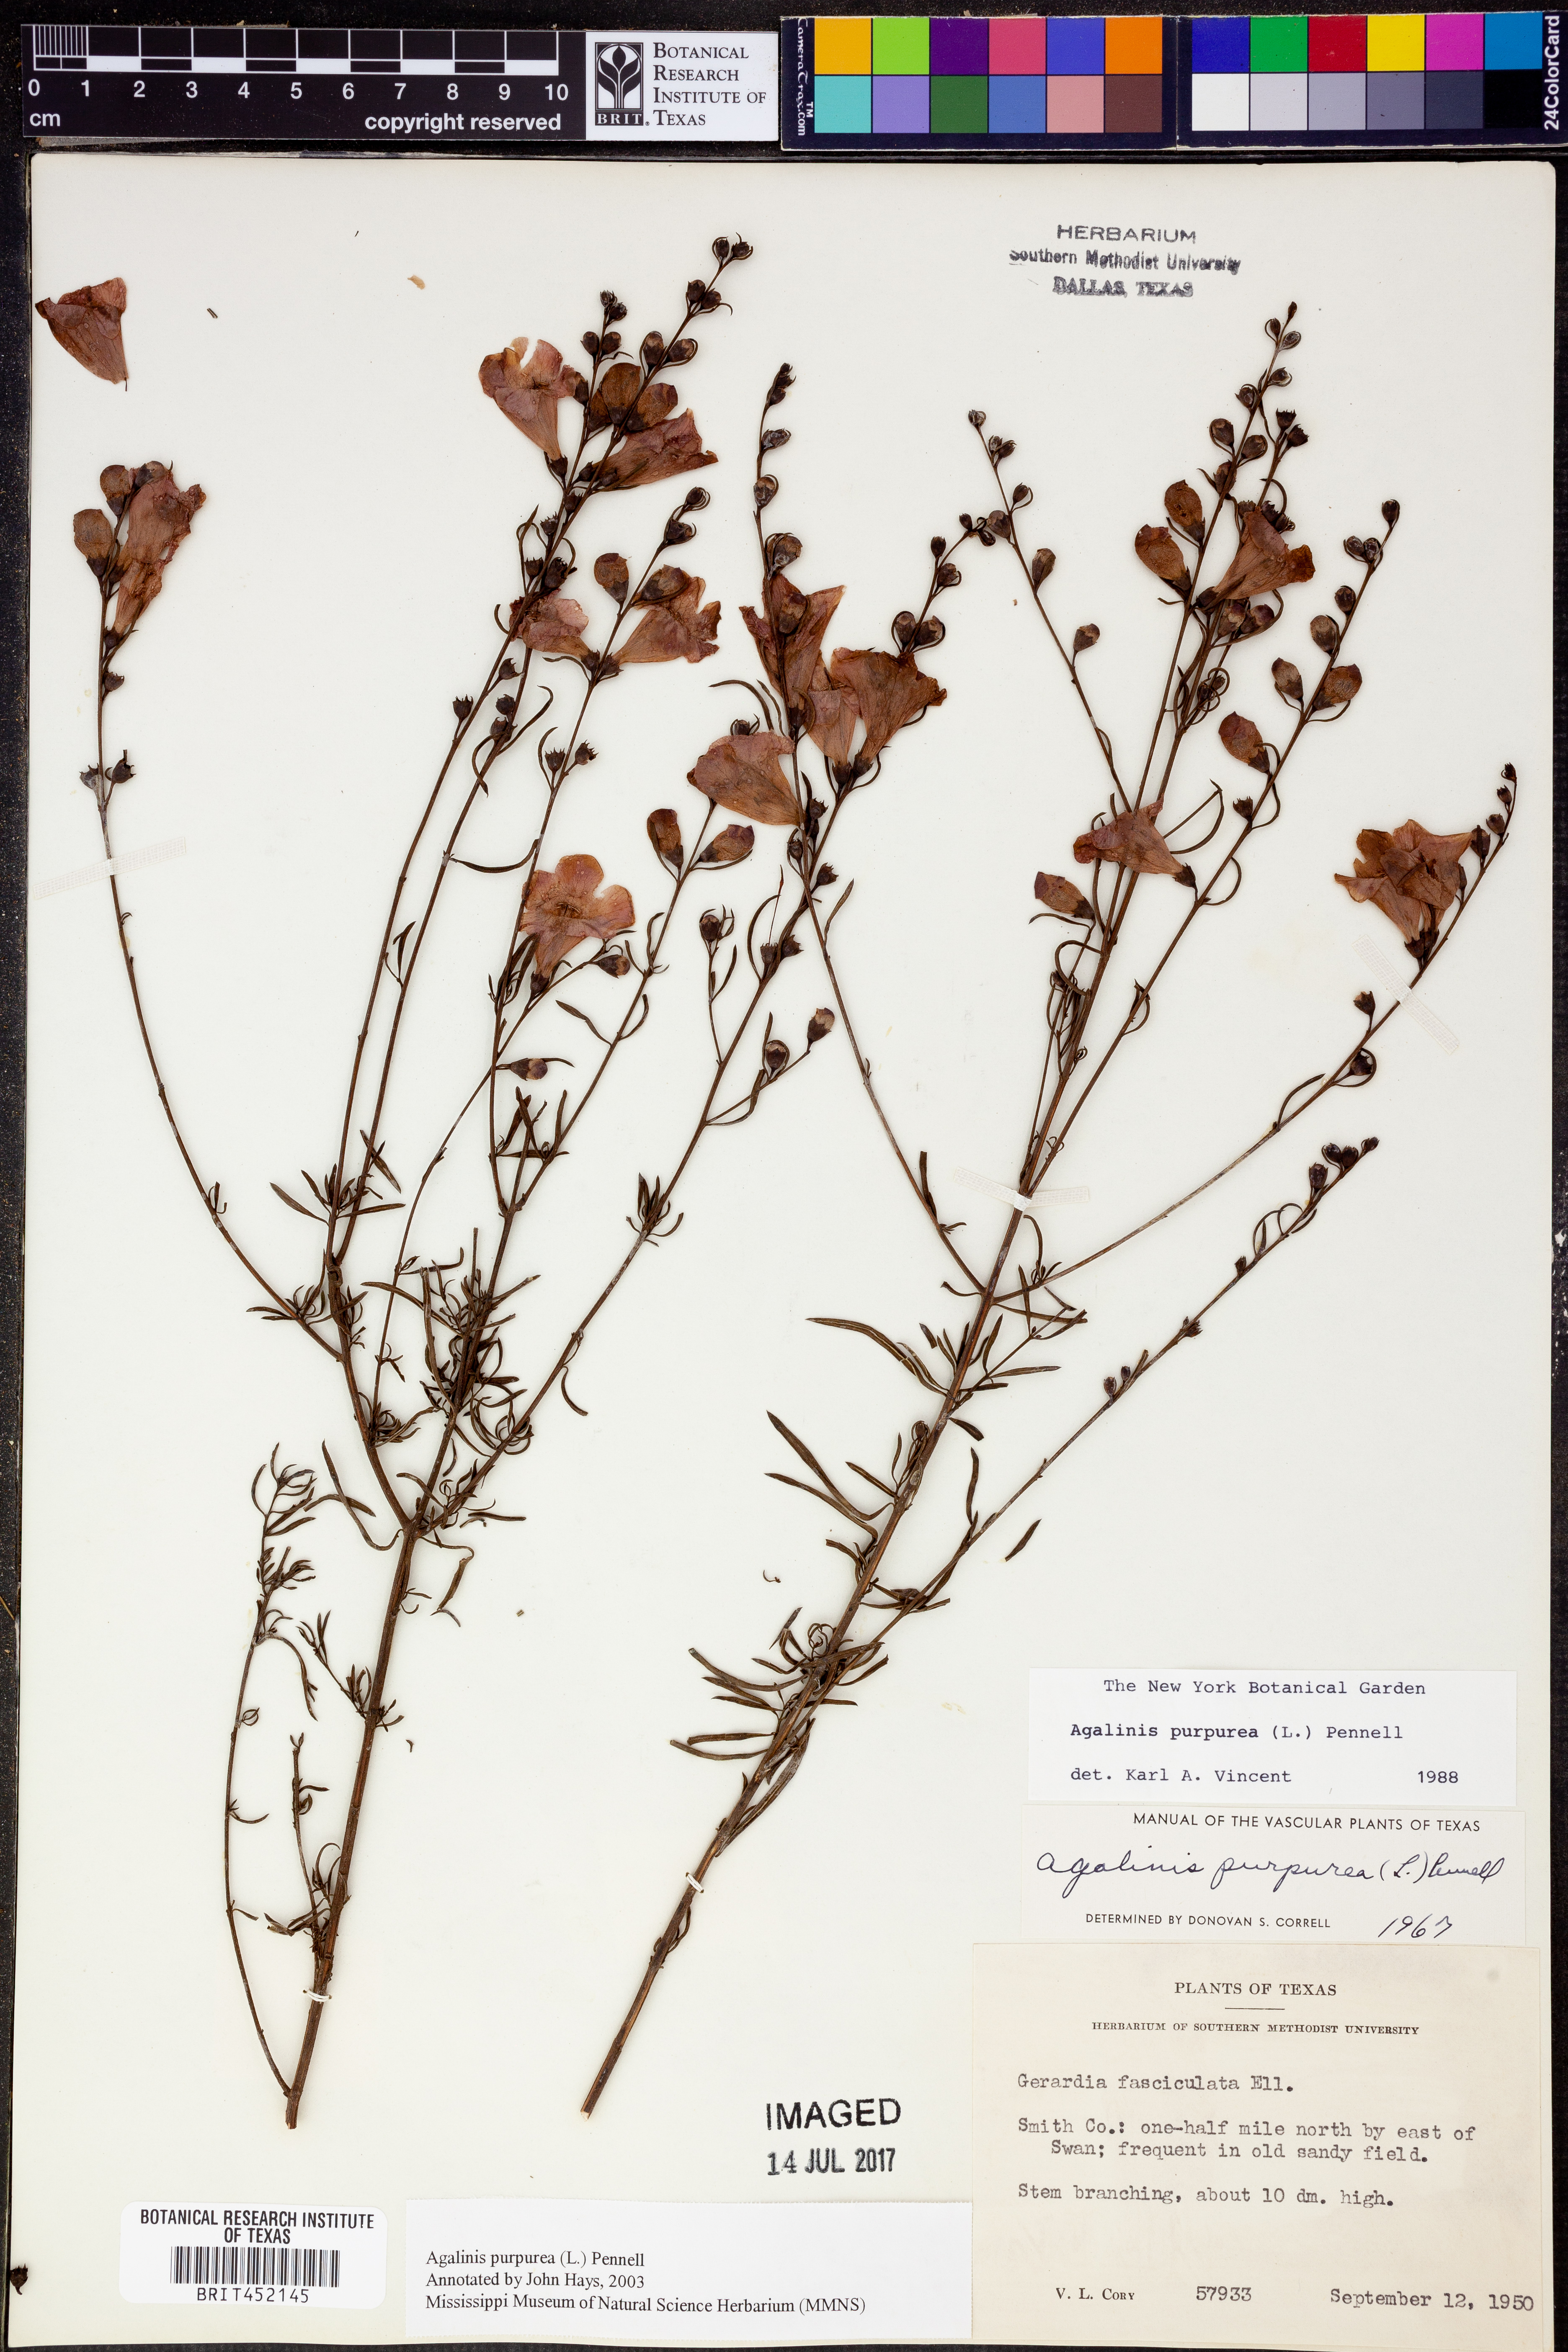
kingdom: Plantae
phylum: Tracheophyta
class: Magnoliopsida
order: Lamiales
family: Orobanchaceae
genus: Agalinis
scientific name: Agalinis purpurea
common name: Purple false foxglove
